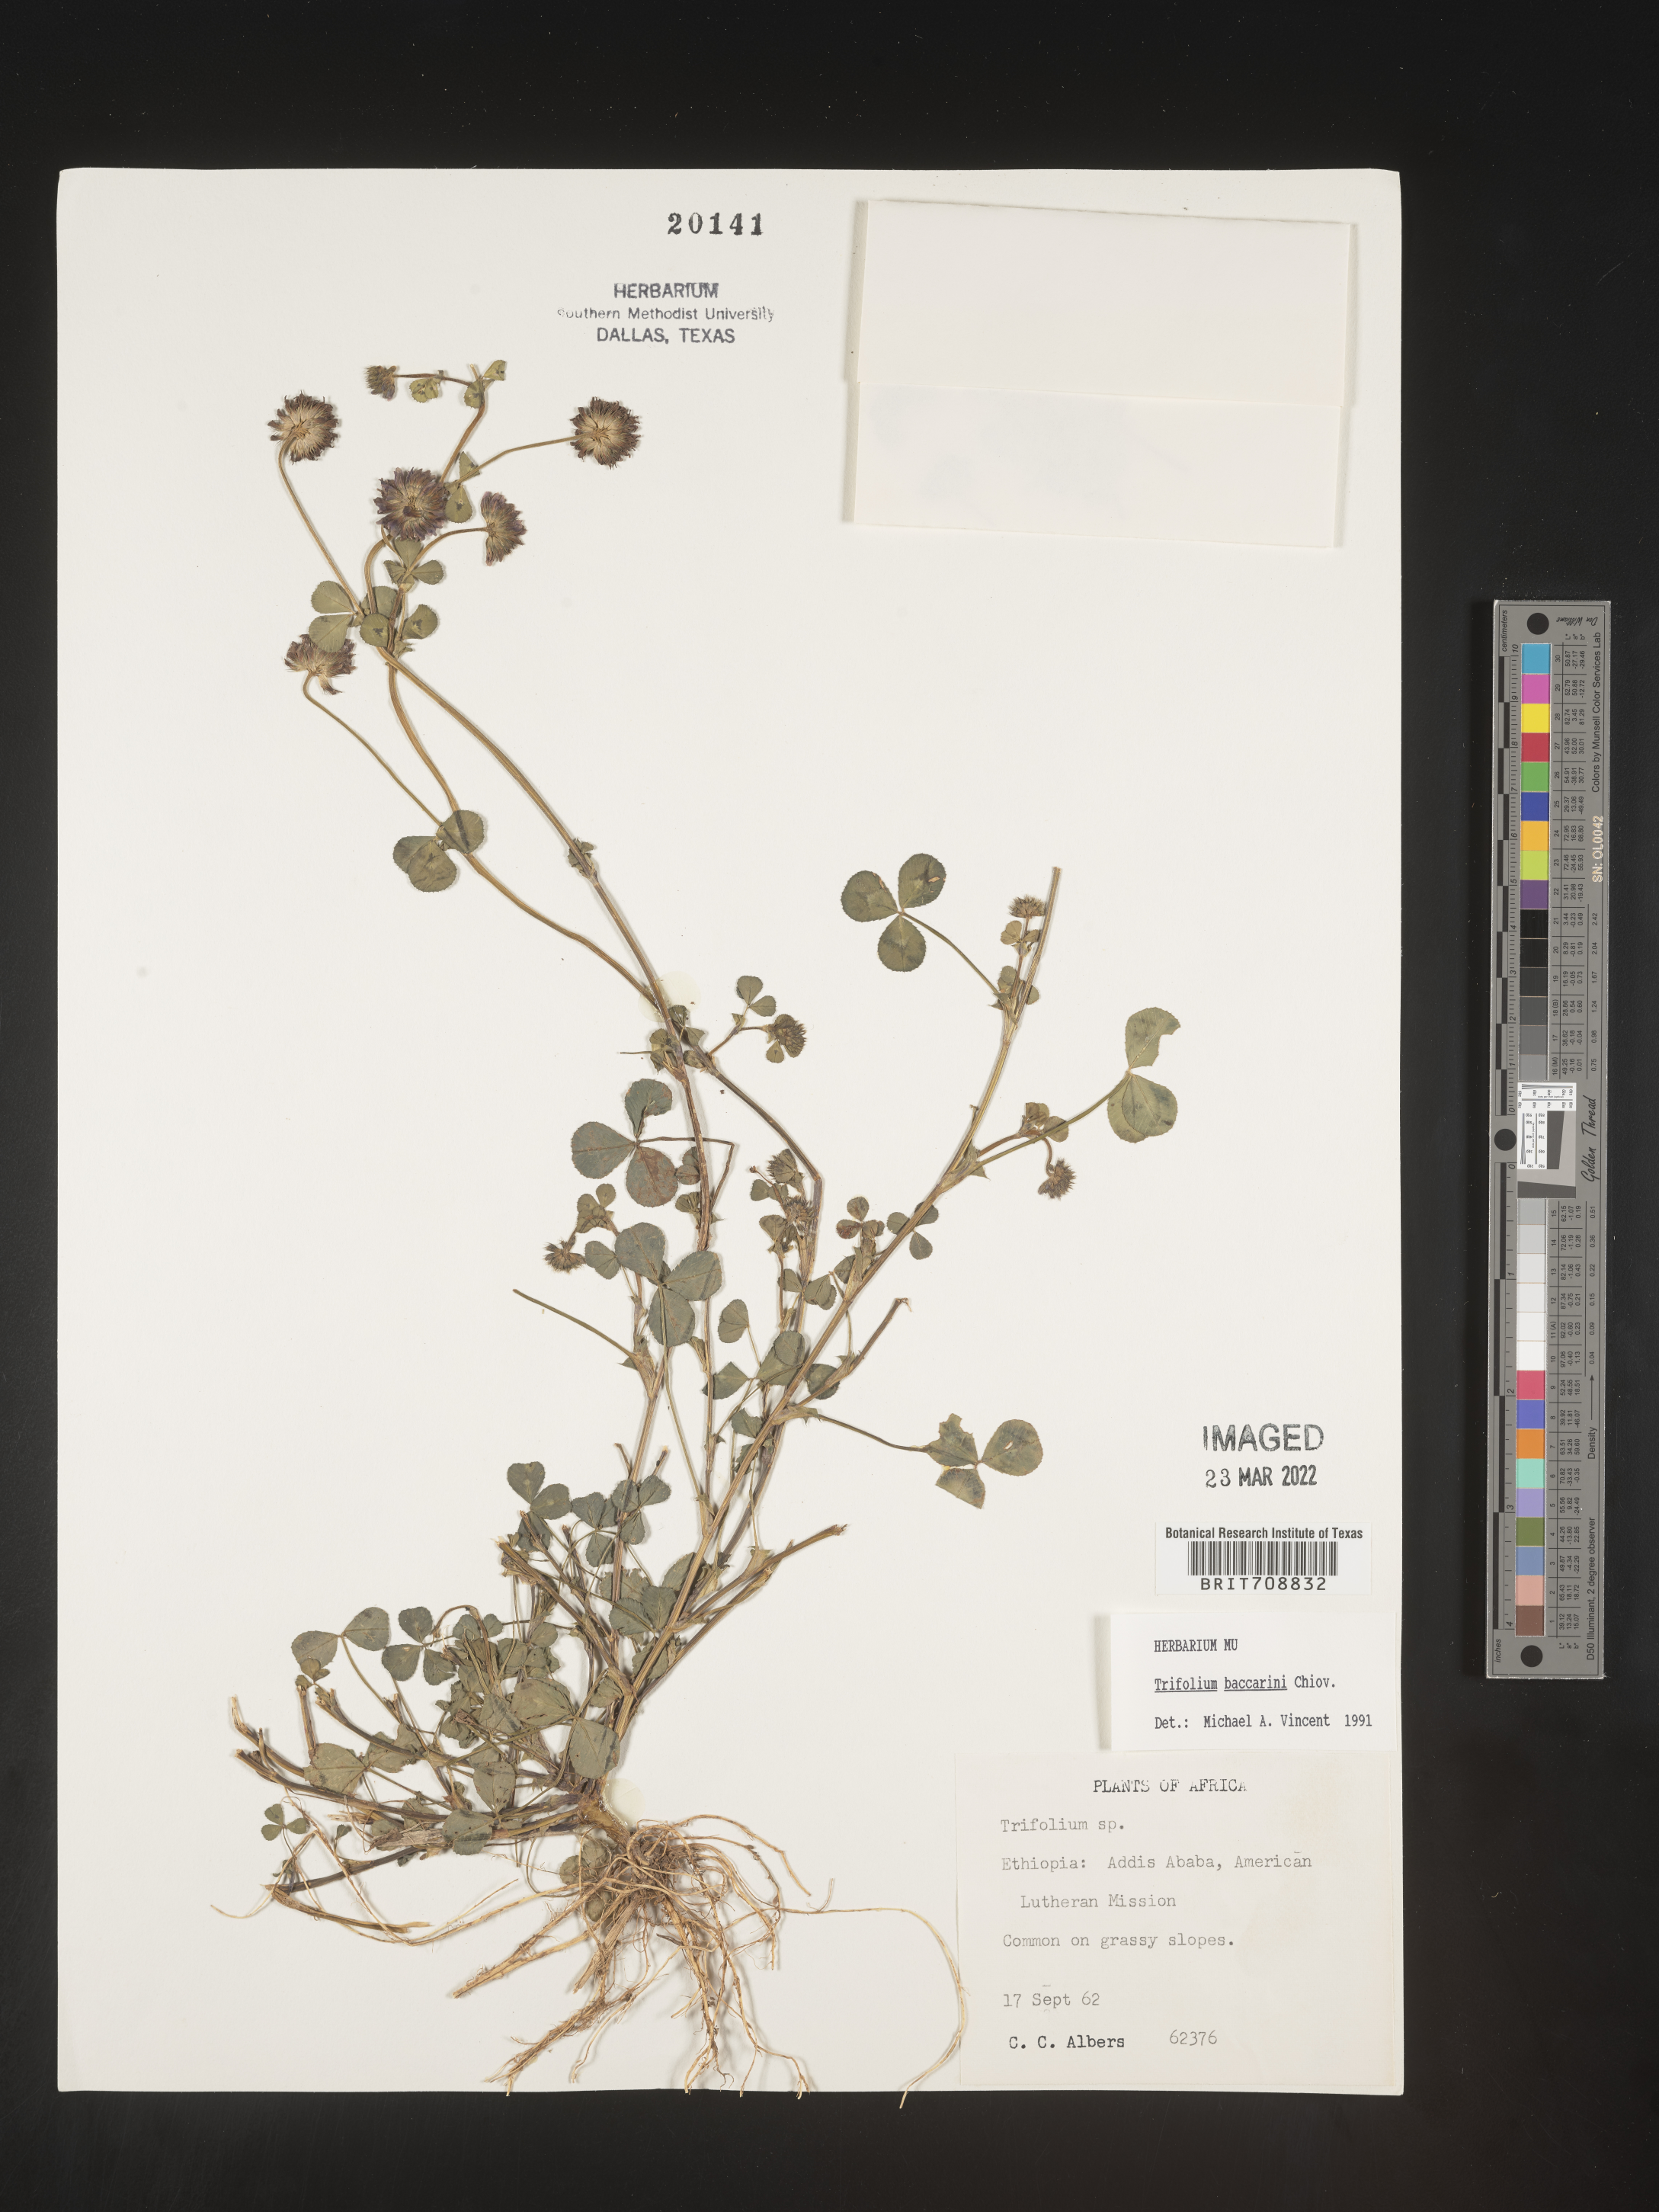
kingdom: Plantae
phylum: Tracheophyta
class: Magnoliopsida
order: Fabales
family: Fabaceae
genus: Trifolium
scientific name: Trifolium
